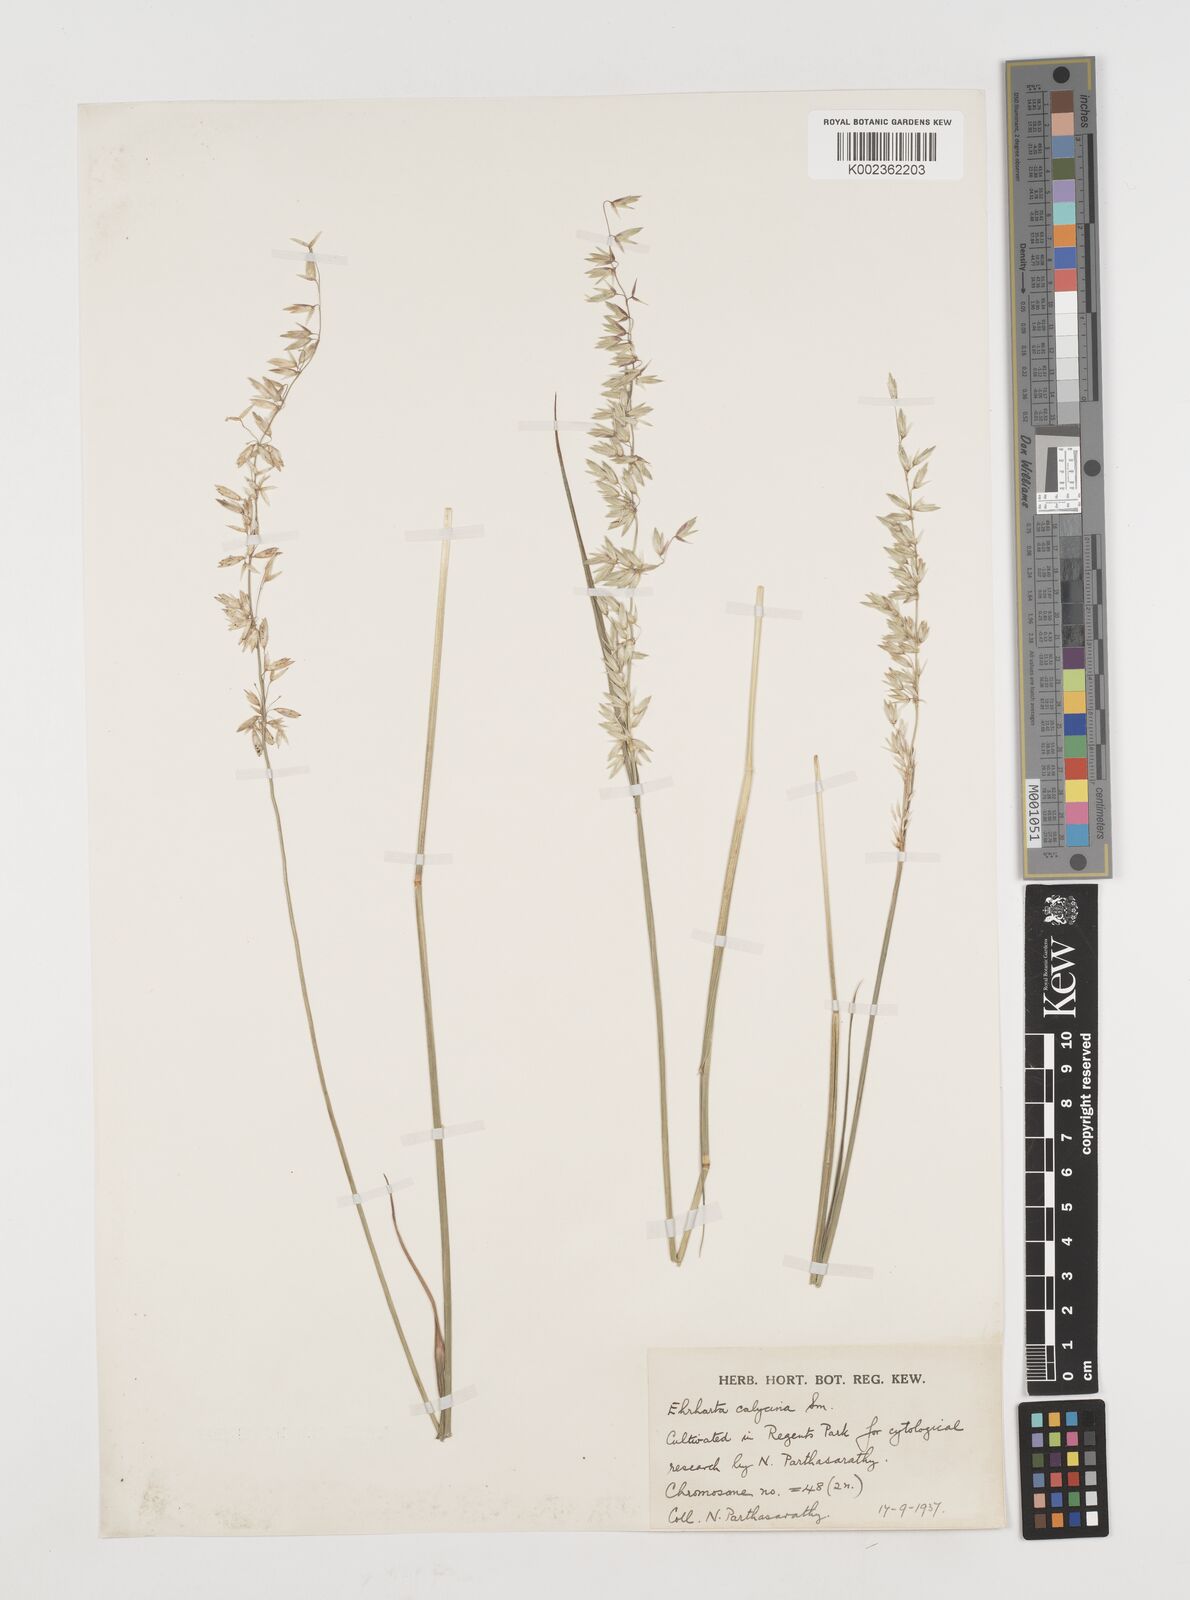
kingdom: Plantae
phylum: Tracheophyta
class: Liliopsida
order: Poales
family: Poaceae
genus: Ehrharta
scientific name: Ehrharta calycina
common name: Perennial veldtgrass
